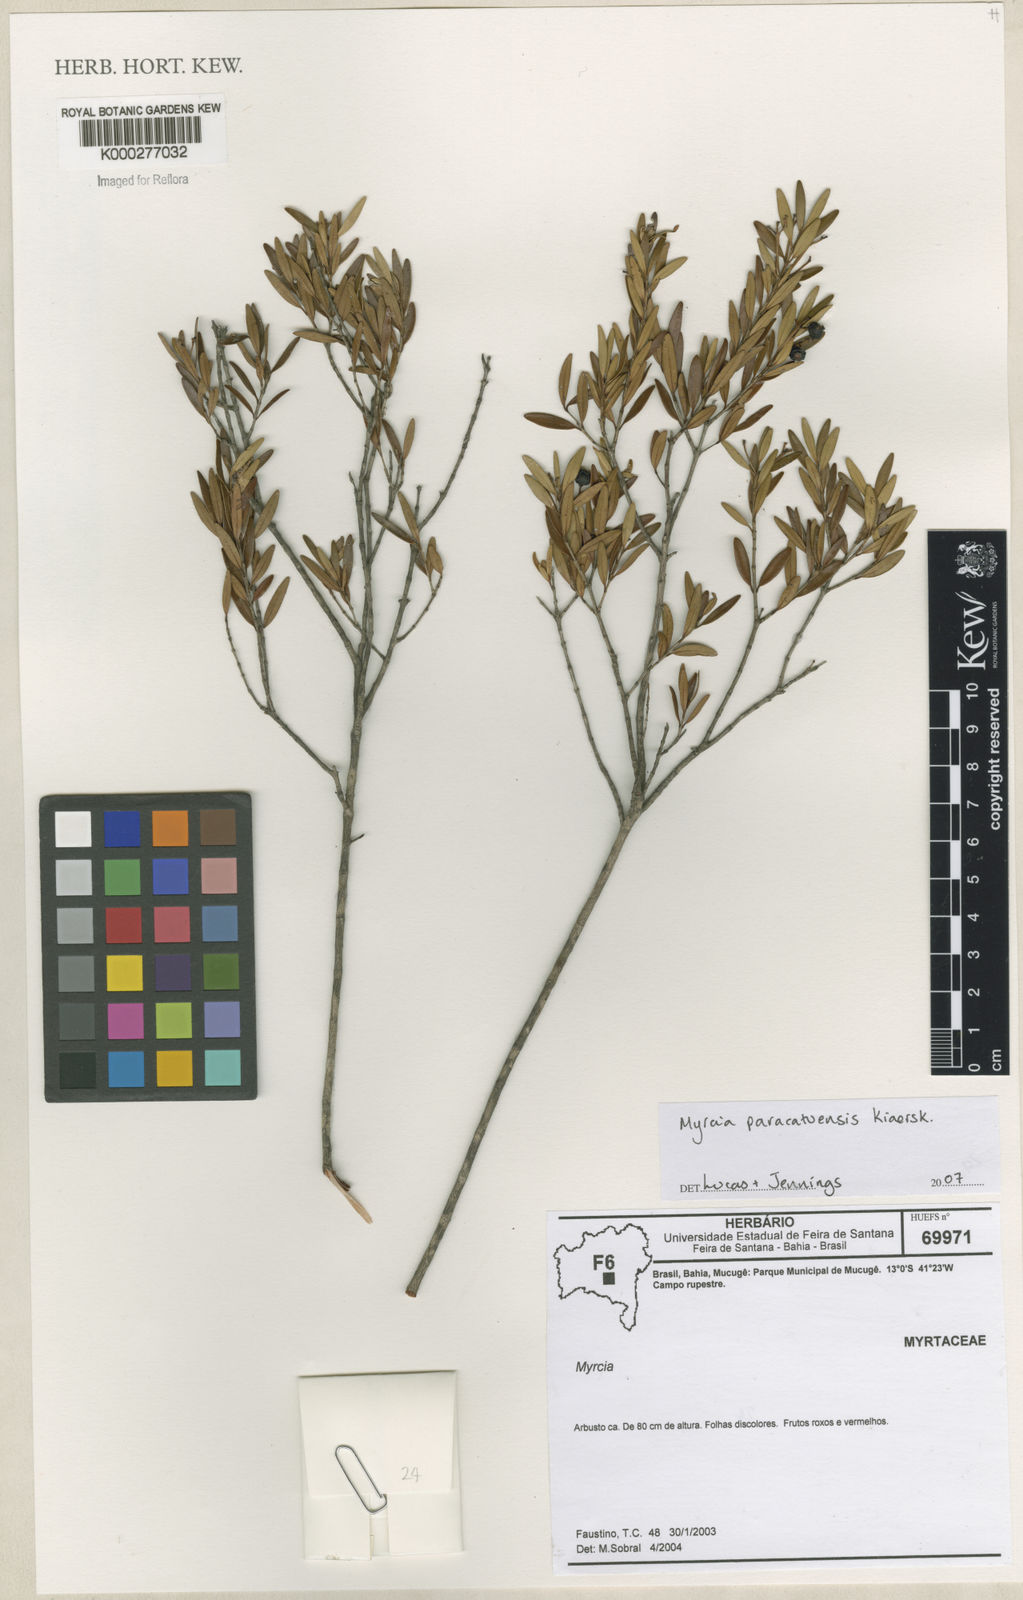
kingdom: Plantae
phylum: Tracheophyta
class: Magnoliopsida
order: Myrtales
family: Myrtaceae
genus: Myrcia
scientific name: Myrcia
